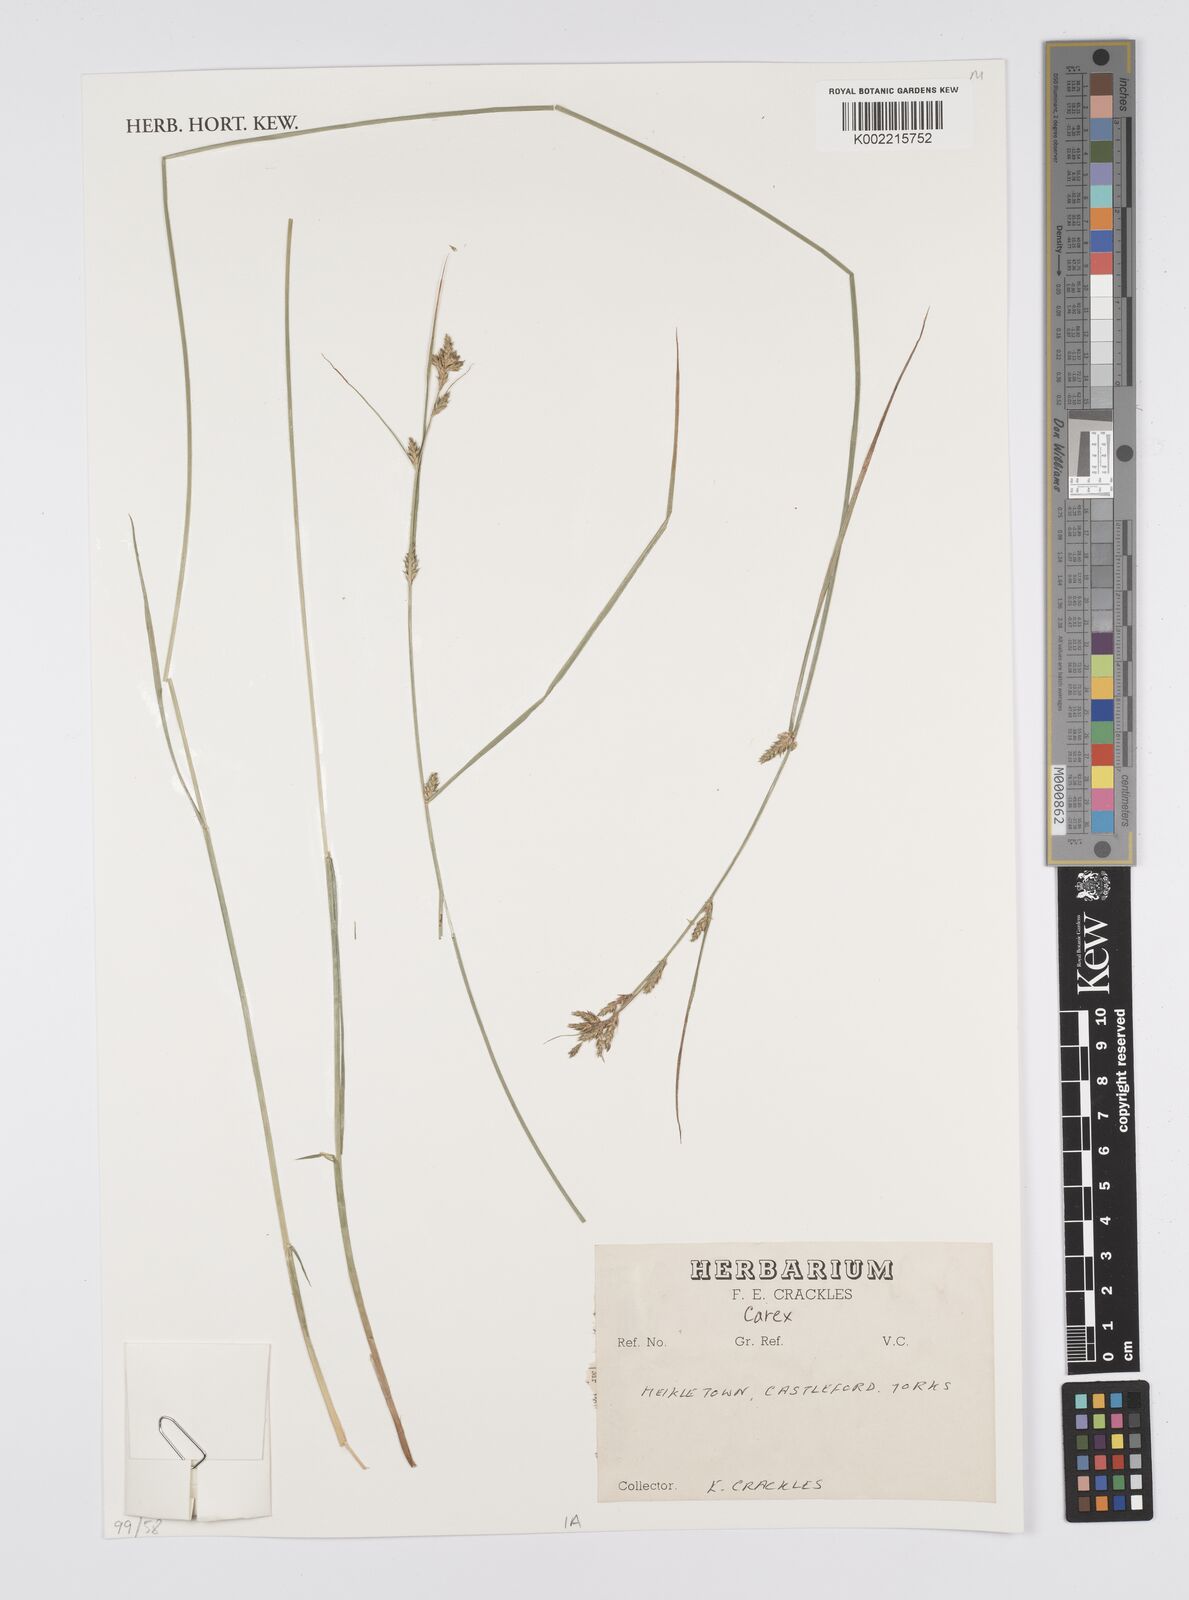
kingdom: Plantae
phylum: Tracheophyta
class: Liliopsida
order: Poales
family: Cyperaceae
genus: Carex
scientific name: Carex
